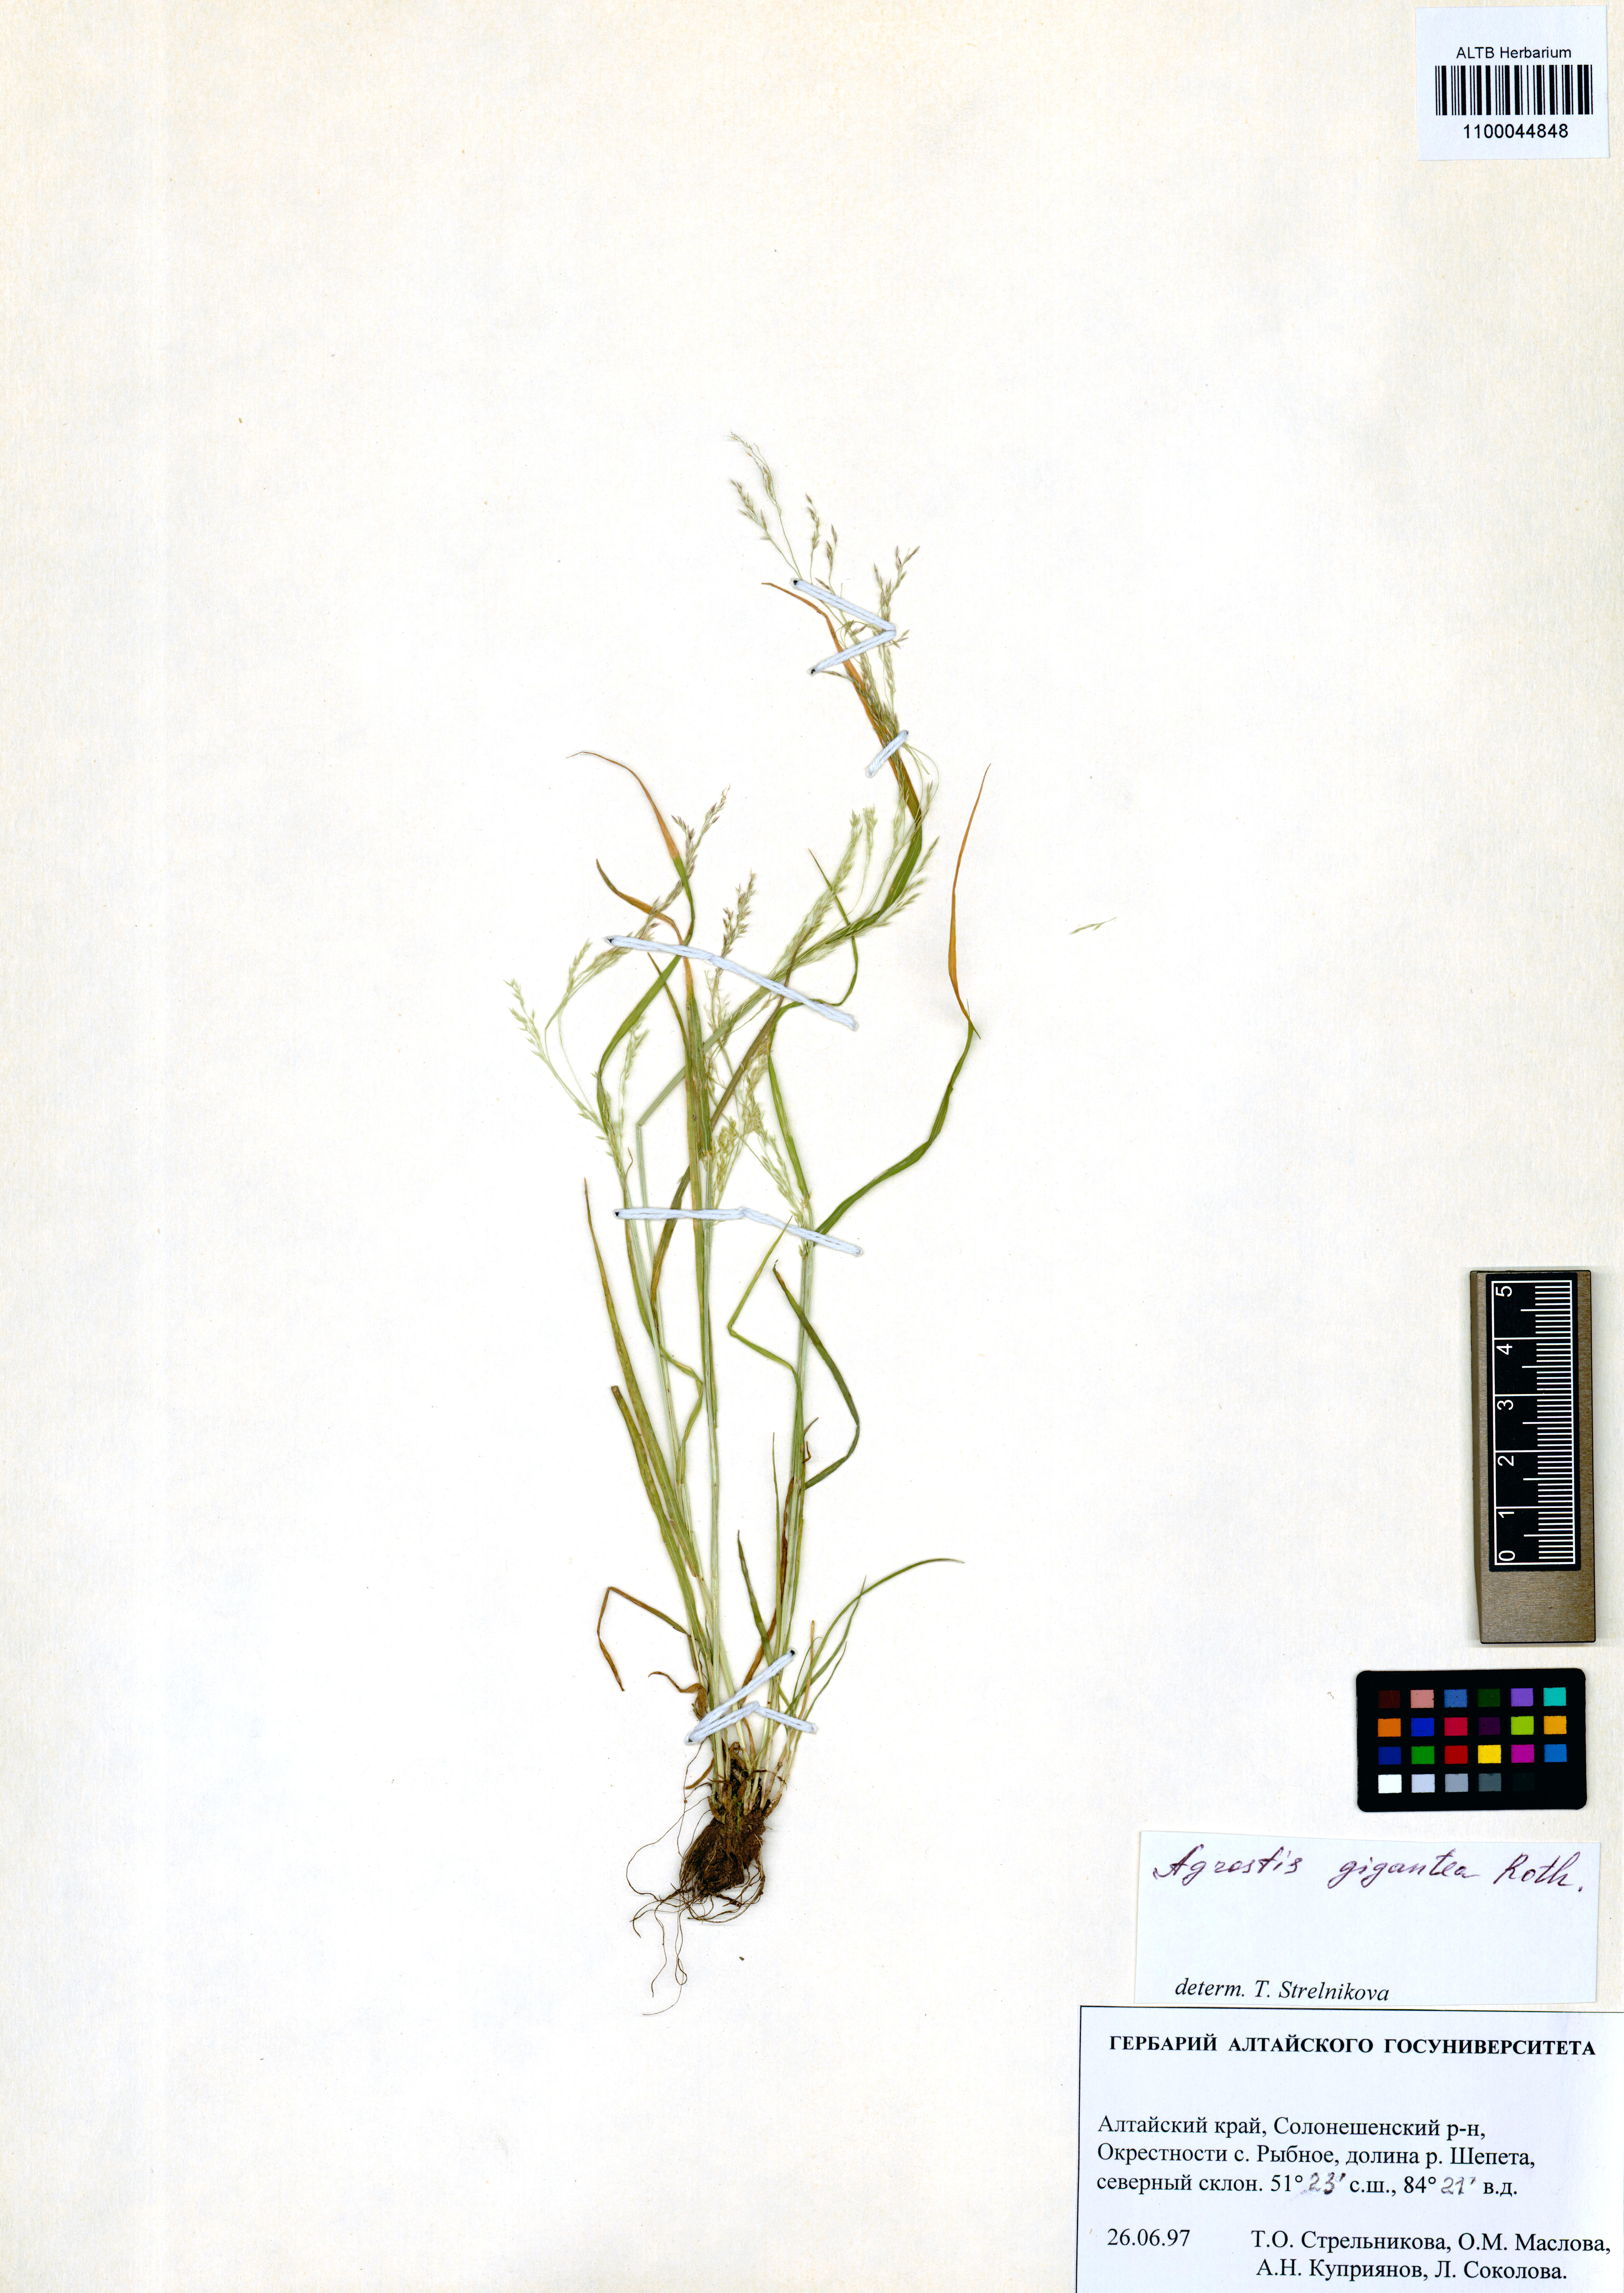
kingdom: Plantae
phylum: Tracheophyta
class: Liliopsida
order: Poales
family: Poaceae
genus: Agrostis
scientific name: Agrostis gigantea
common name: Black bent
